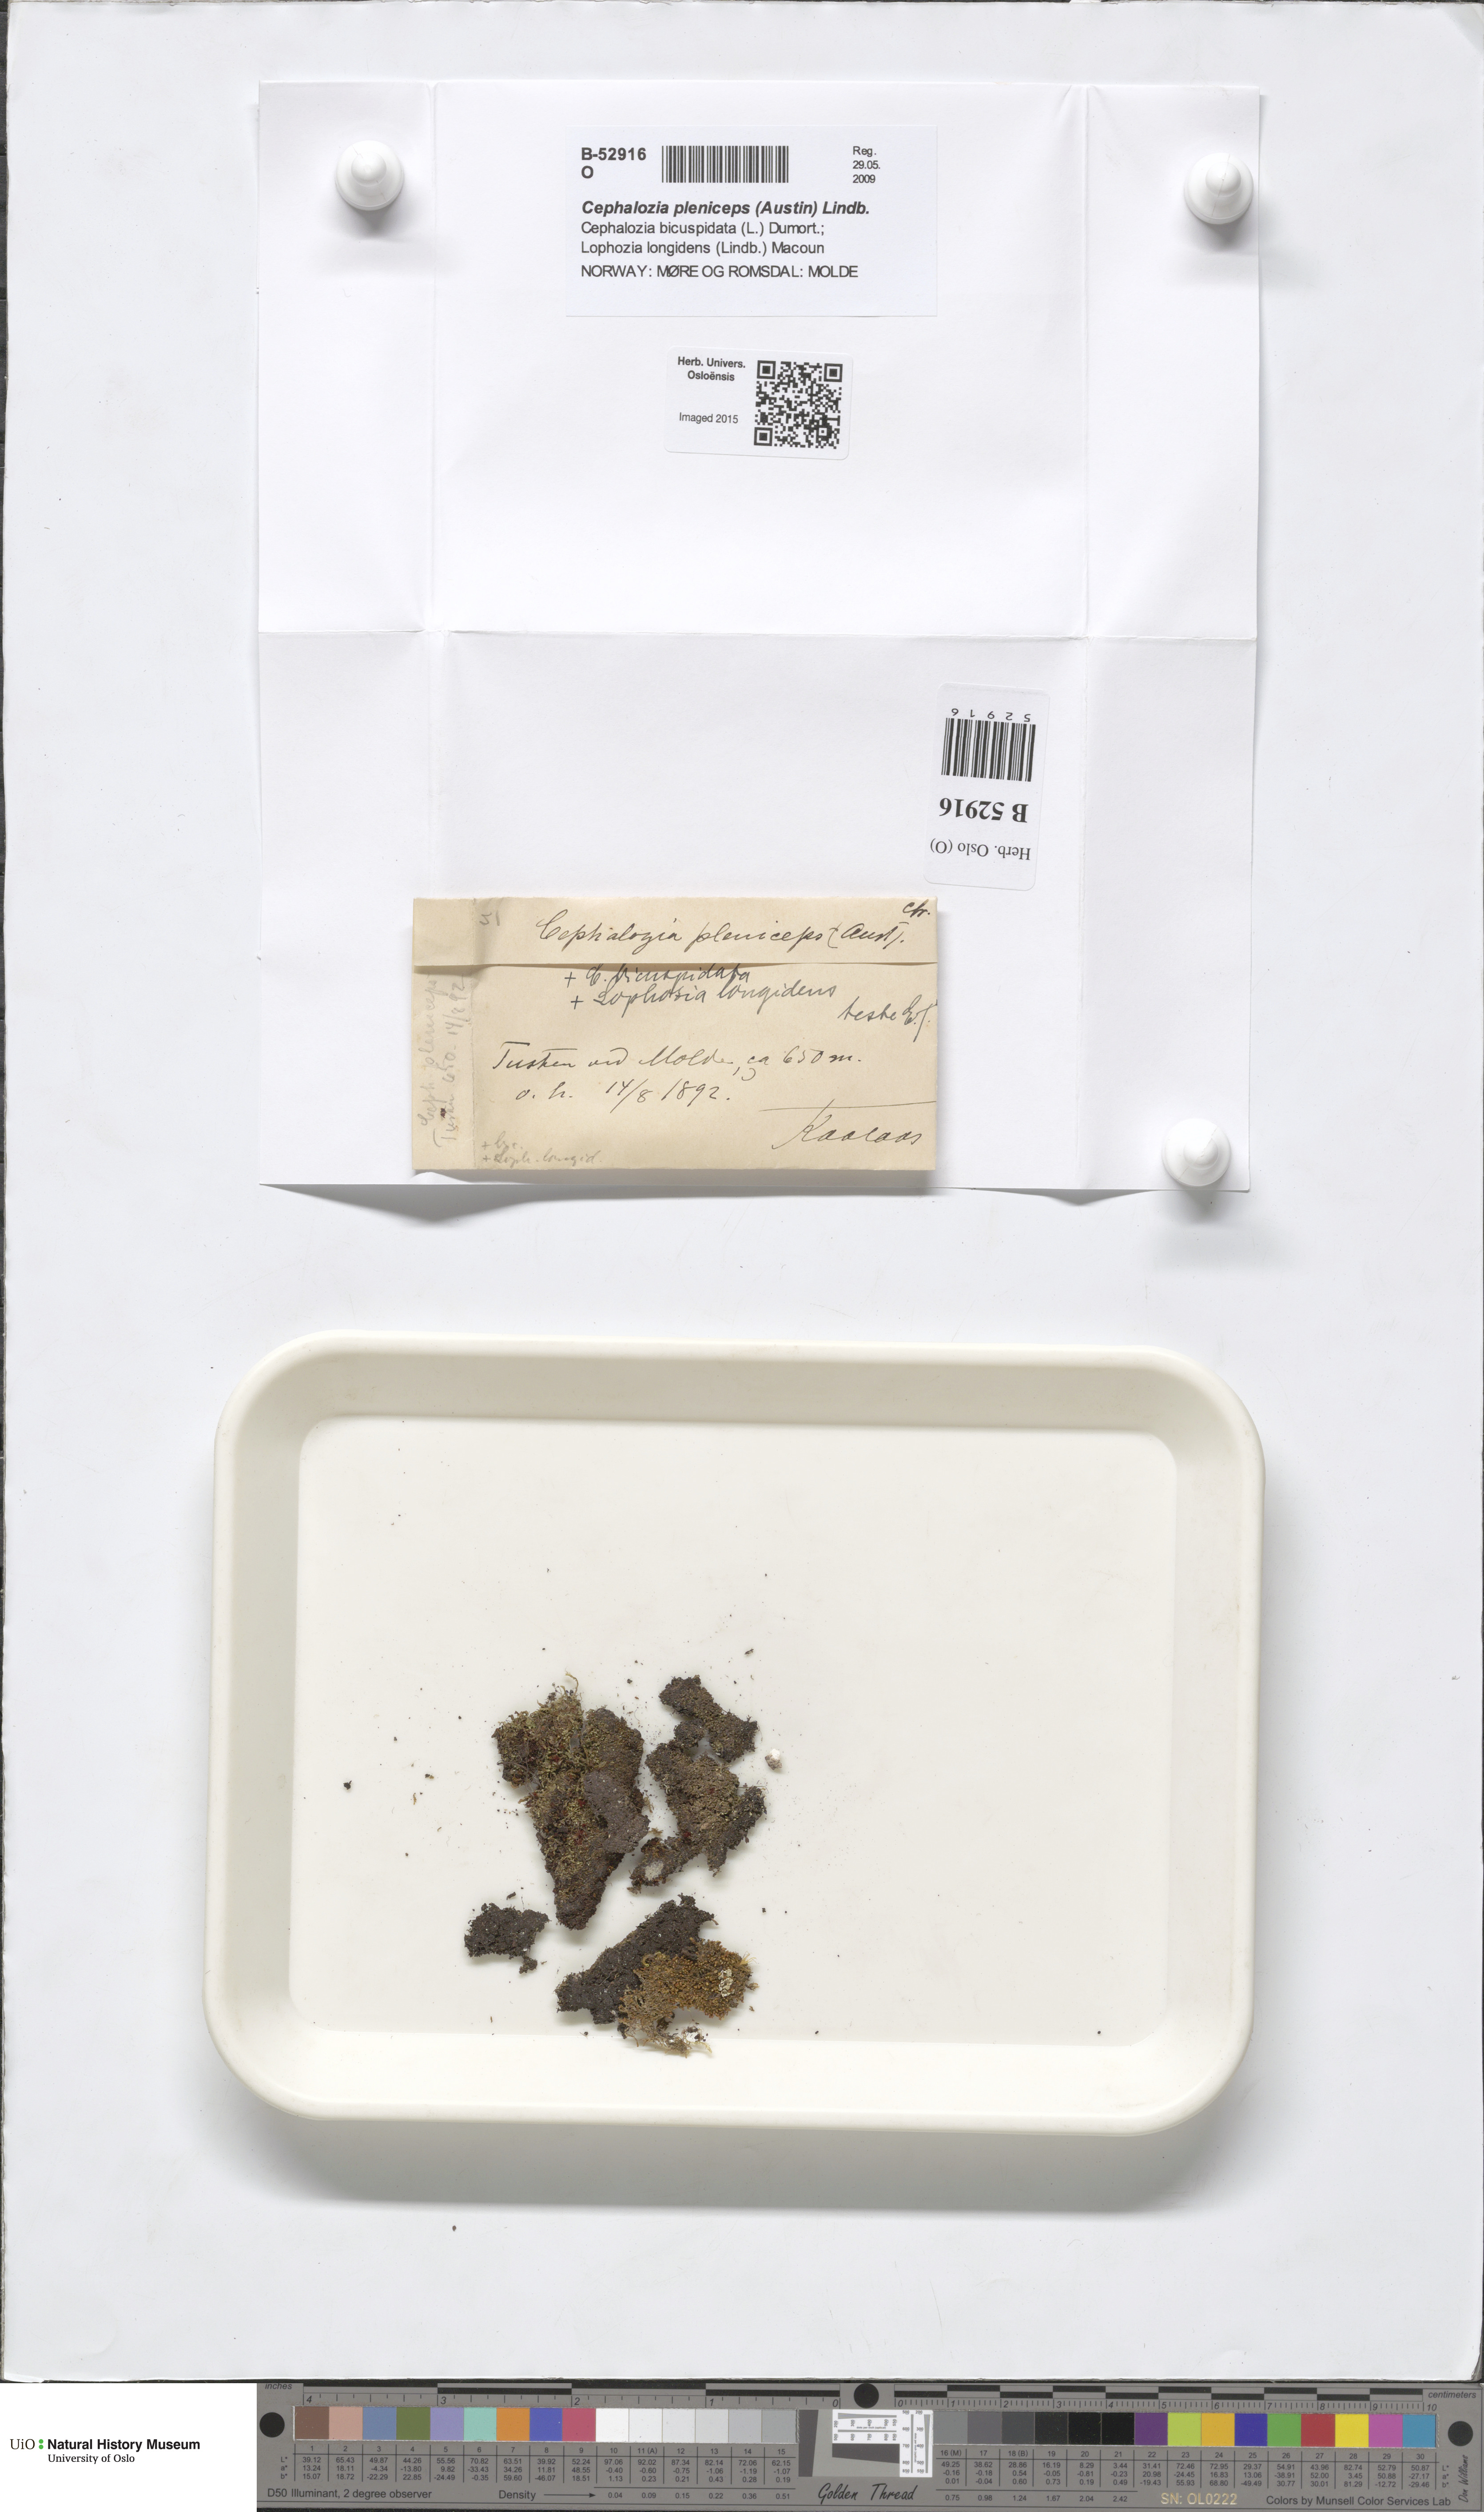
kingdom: Plantae
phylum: Marchantiophyta
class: Jungermanniopsida
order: Jungermanniales
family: Cephaloziaceae
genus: Fuscocephaloziopsis
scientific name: Fuscocephaloziopsis pleniceps
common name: Blunt pincerwort
